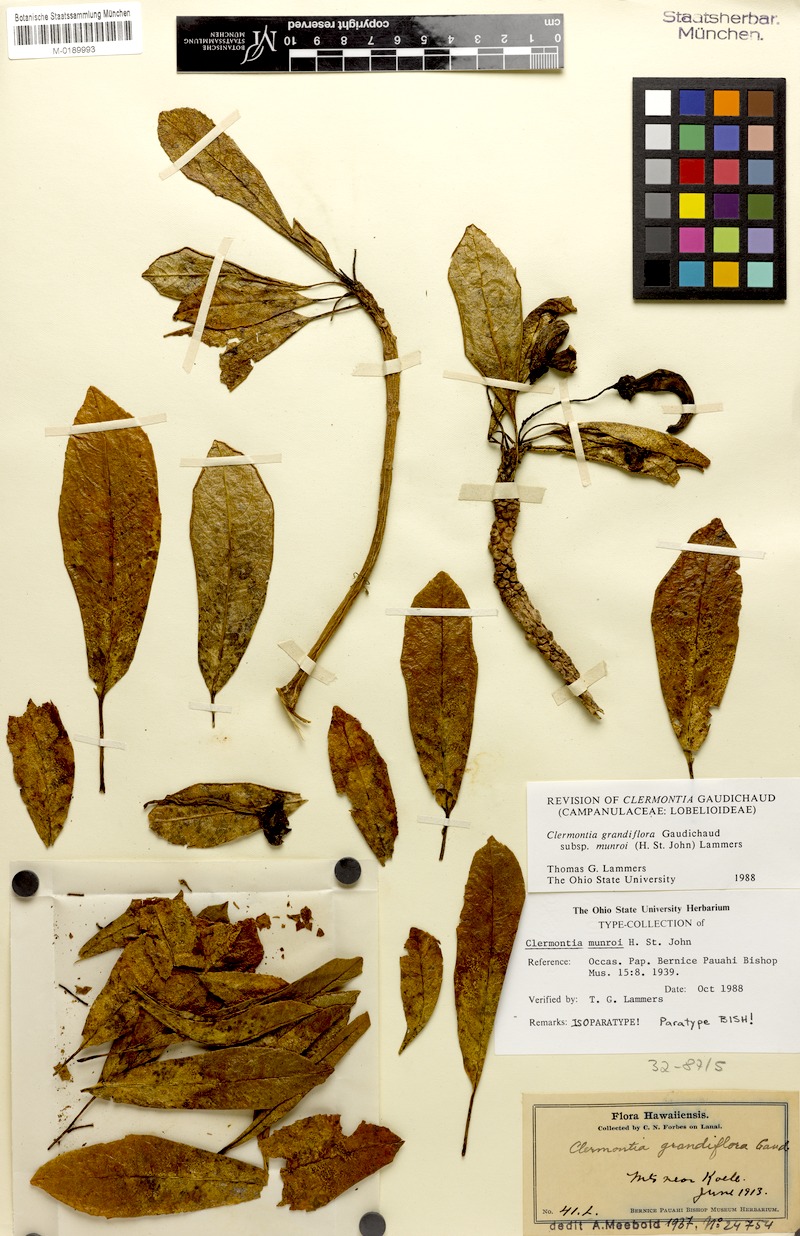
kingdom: Plantae
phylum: Tracheophyta
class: Magnoliopsida
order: Asterales
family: Campanulaceae
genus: Clermontia
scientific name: Clermontia grandiflora
